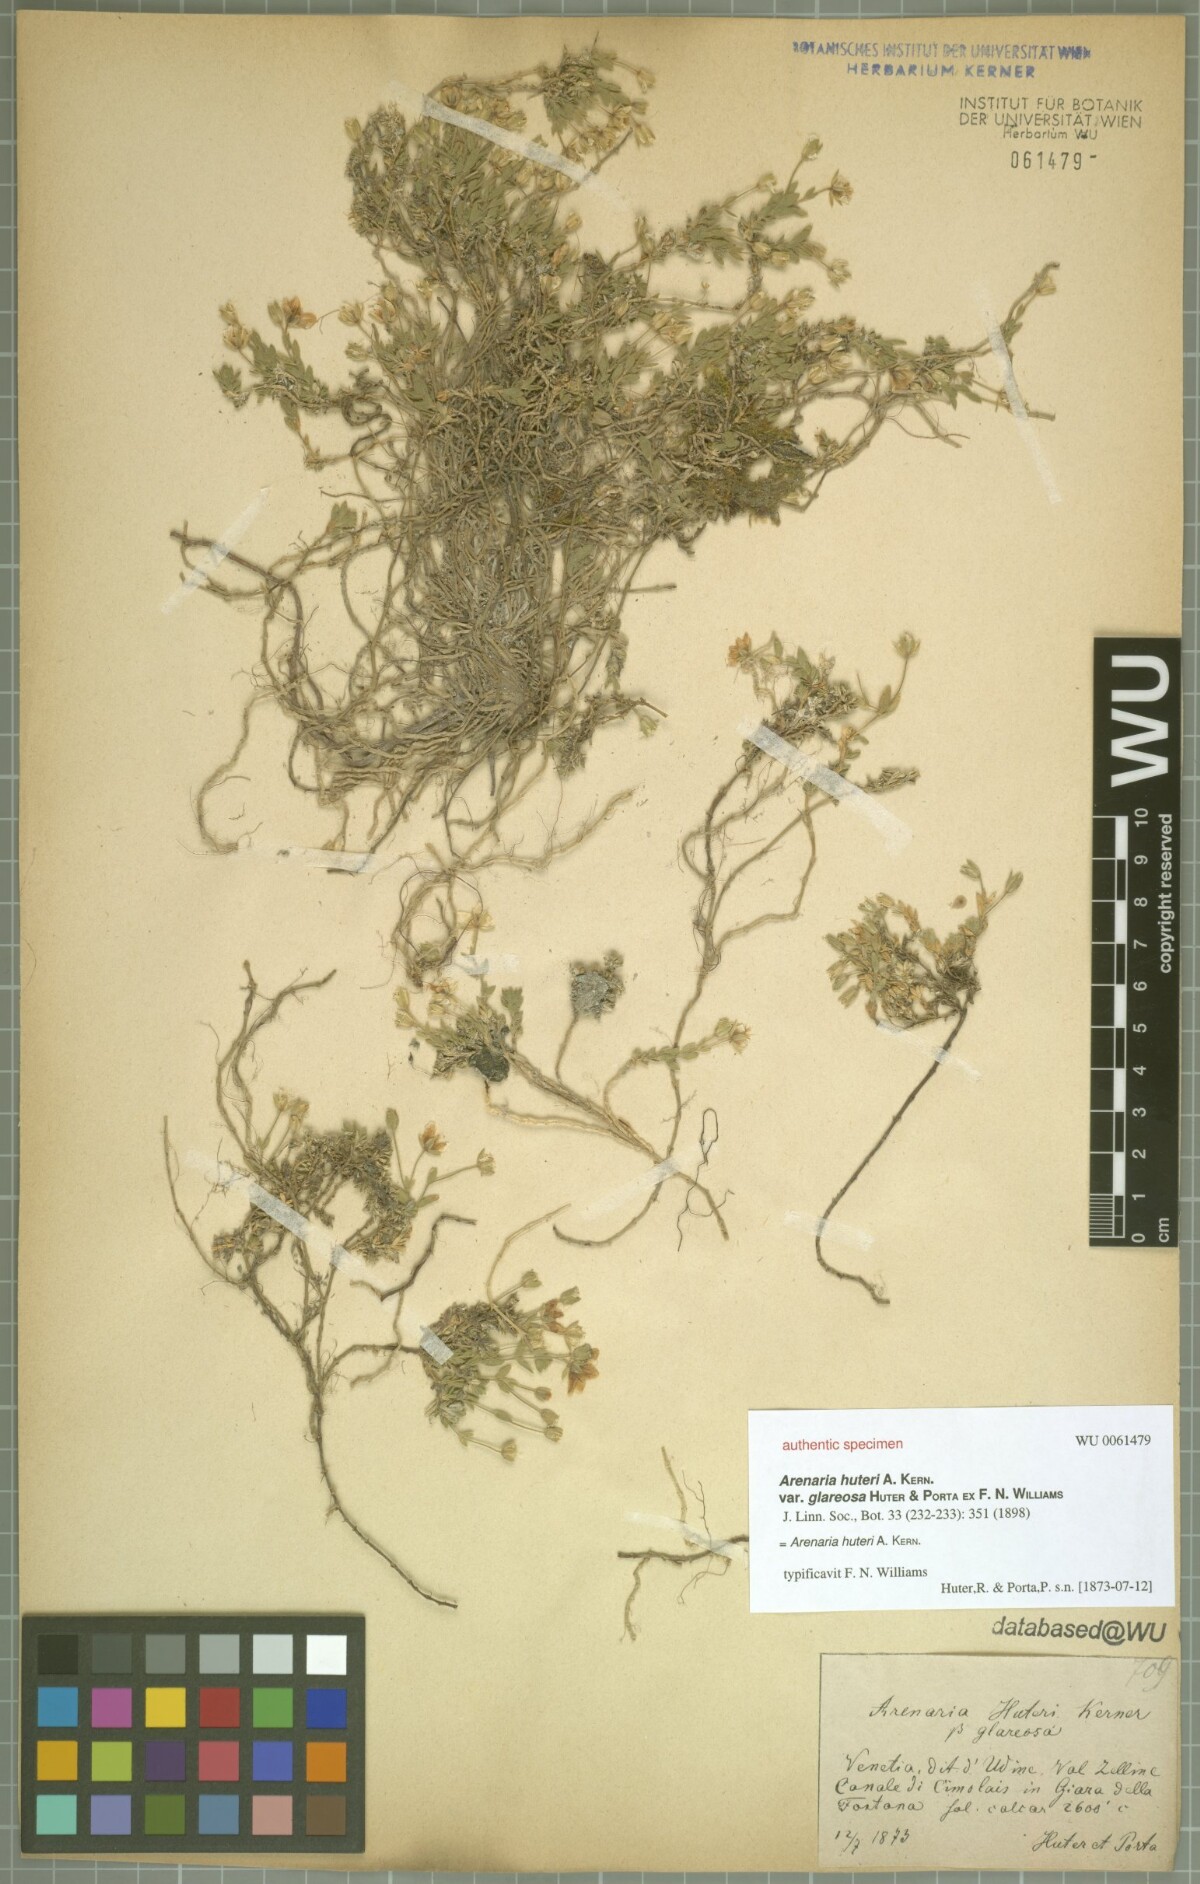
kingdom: Plantae
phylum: Tracheophyta
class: Magnoliopsida
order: Caryophyllales
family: Caryophyllaceae
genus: Arenaria
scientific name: Arenaria huteri
